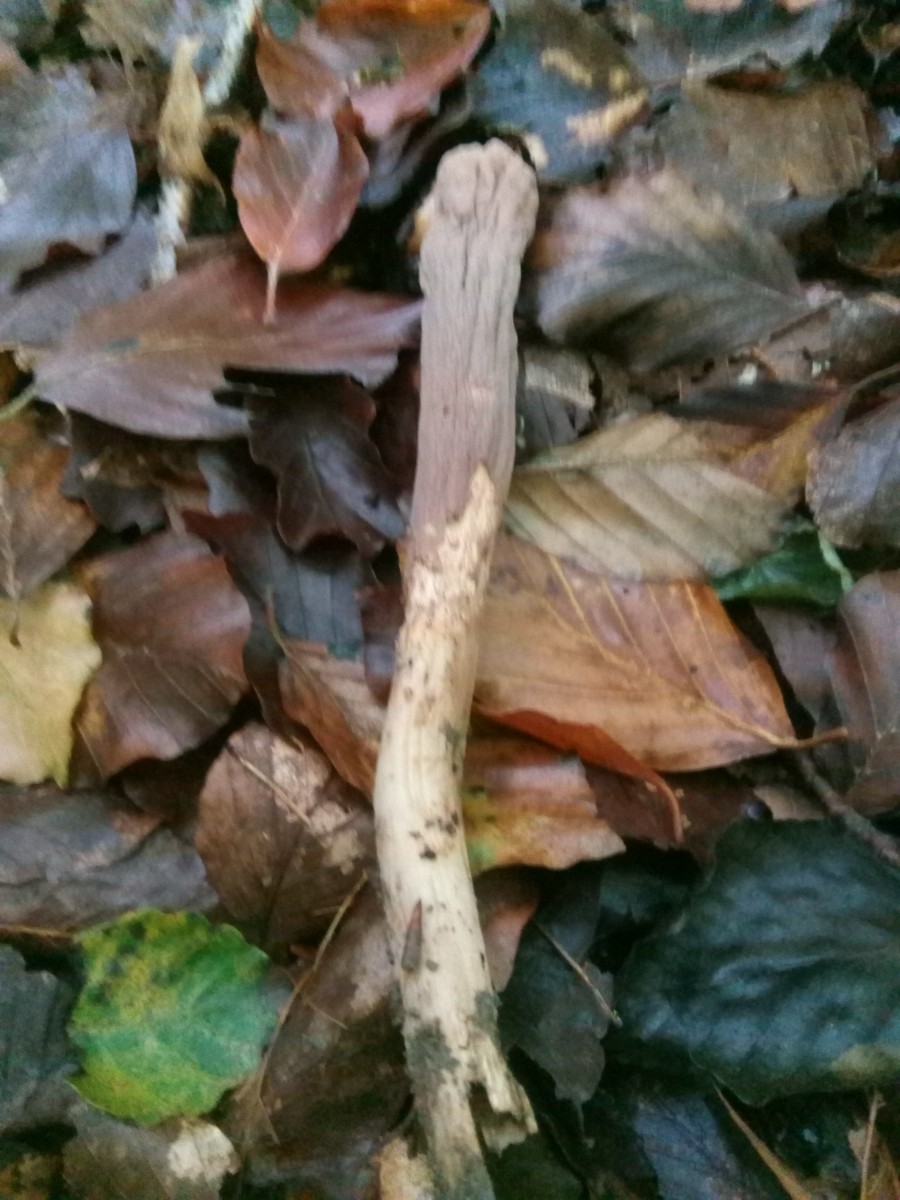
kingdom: Fungi
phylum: Basidiomycota
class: Agaricomycetes
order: Gomphales
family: Clavariadelphaceae
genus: Clavariadelphus
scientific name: Clavariadelphus pistillaris
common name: herkules-kæmpekølle
